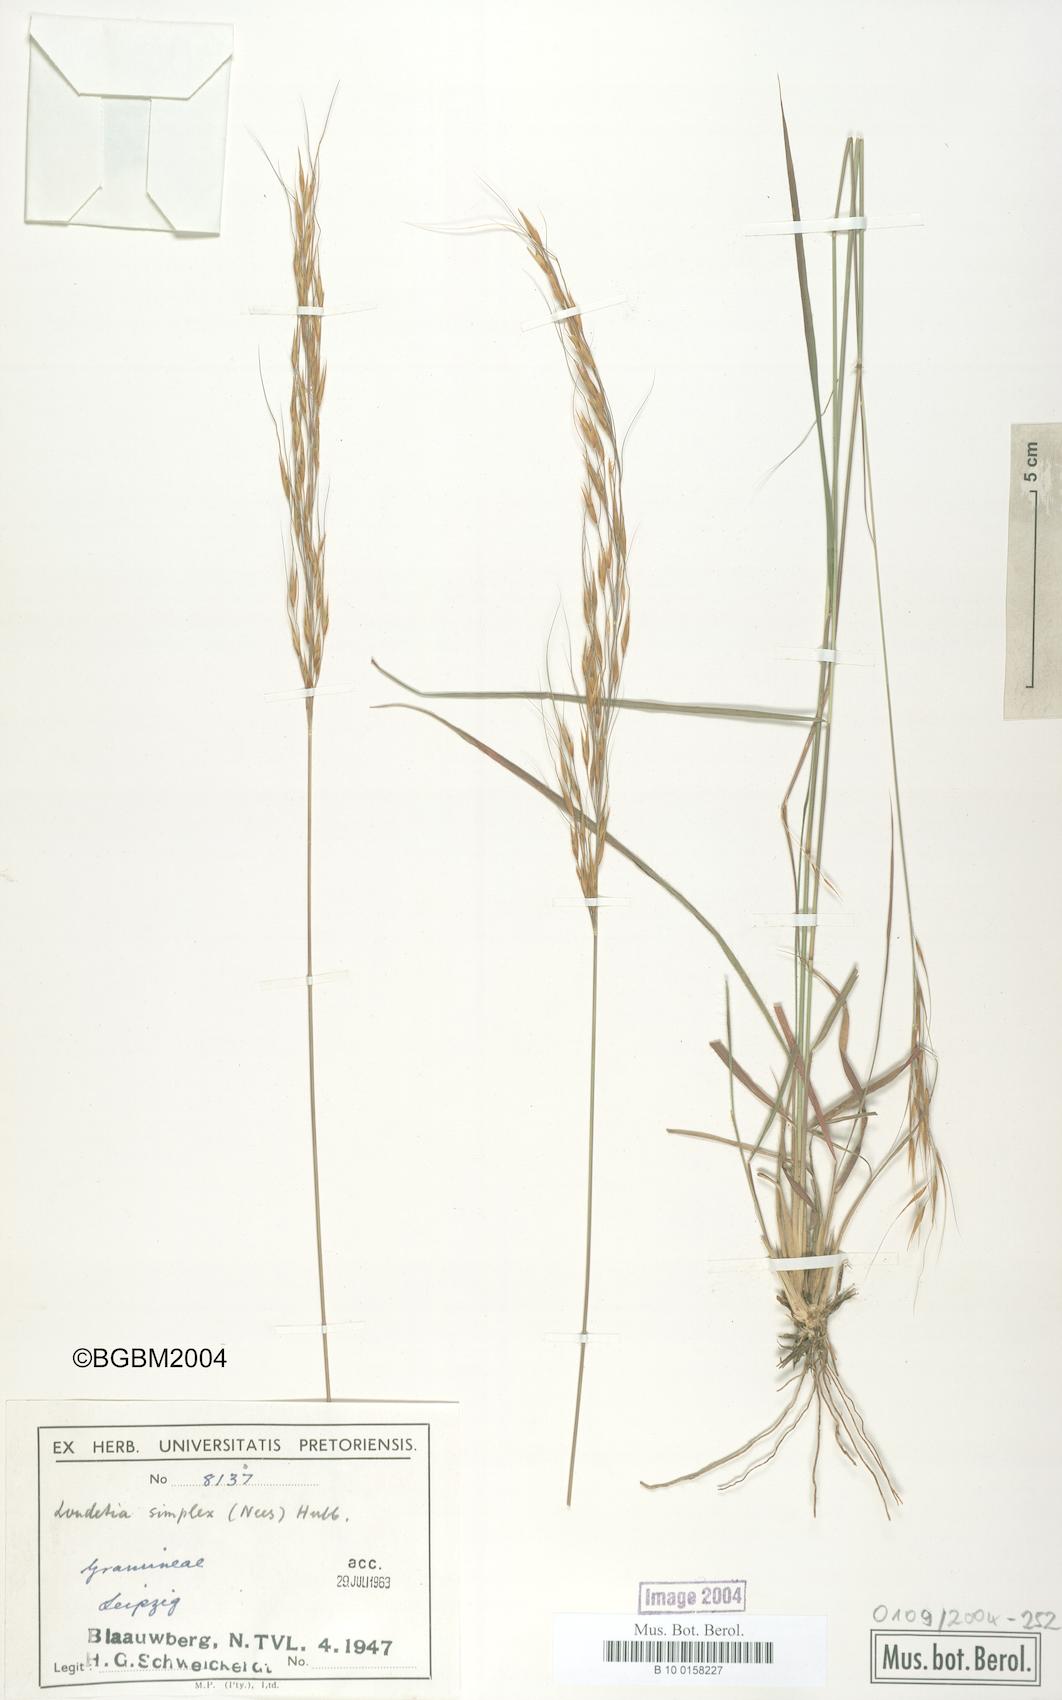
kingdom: Plantae
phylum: Tracheophyta
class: Liliopsida
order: Poales
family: Poaceae
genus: Loudetia
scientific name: Loudetia simplex
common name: Common russet grass
